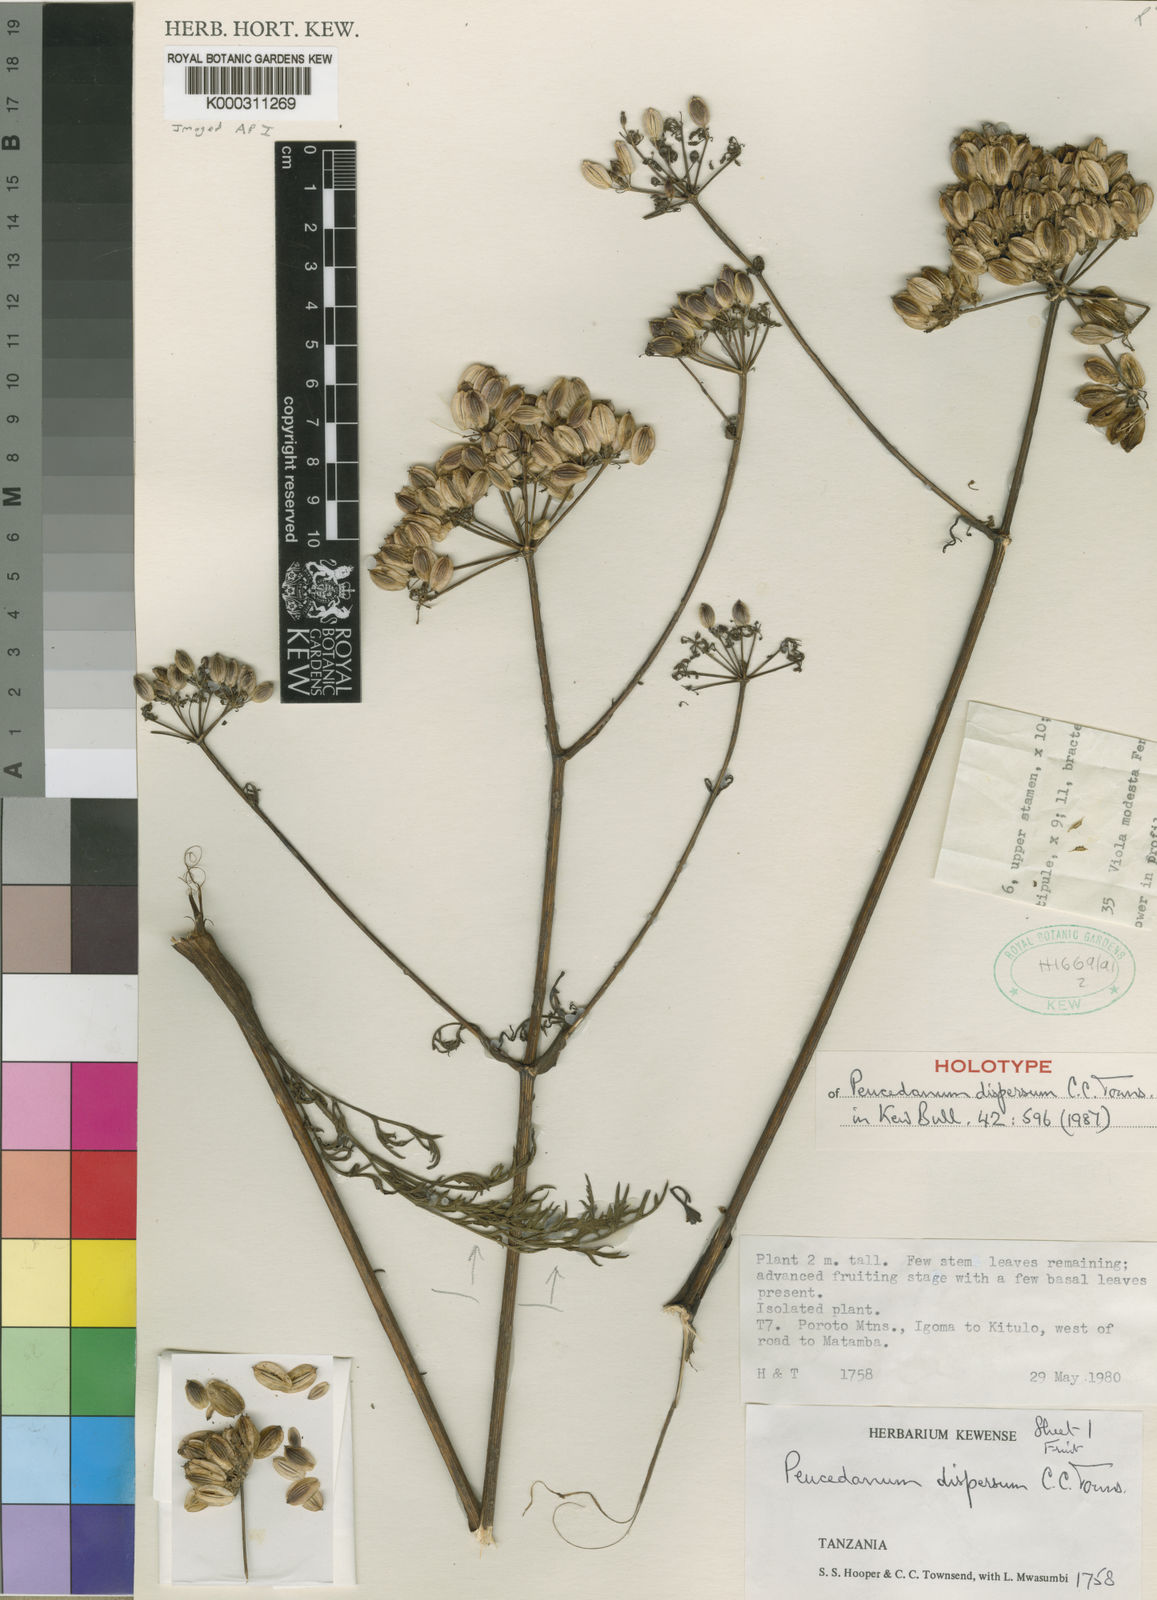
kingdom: Plantae
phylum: Tracheophyta
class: Magnoliopsida
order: Apiales
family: Apiaceae
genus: Afrosciadium
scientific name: Afrosciadium dispersum
